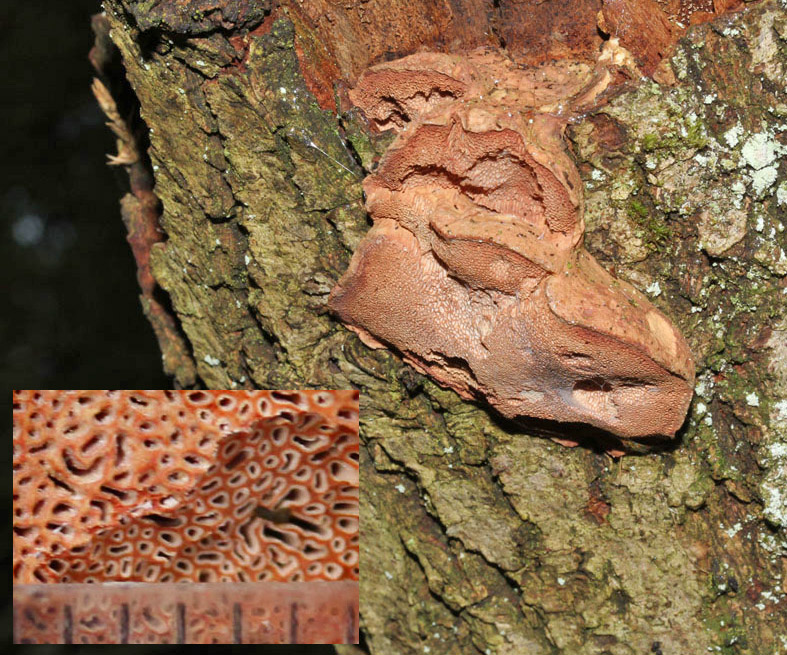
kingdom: Fungi
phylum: Basidiomycota
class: Agaricomycetes
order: Polyporales
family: Phanerochaetaceae
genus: Hapalopilus
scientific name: Hapalopilus rutilans
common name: rødlig okkerporesvamp
